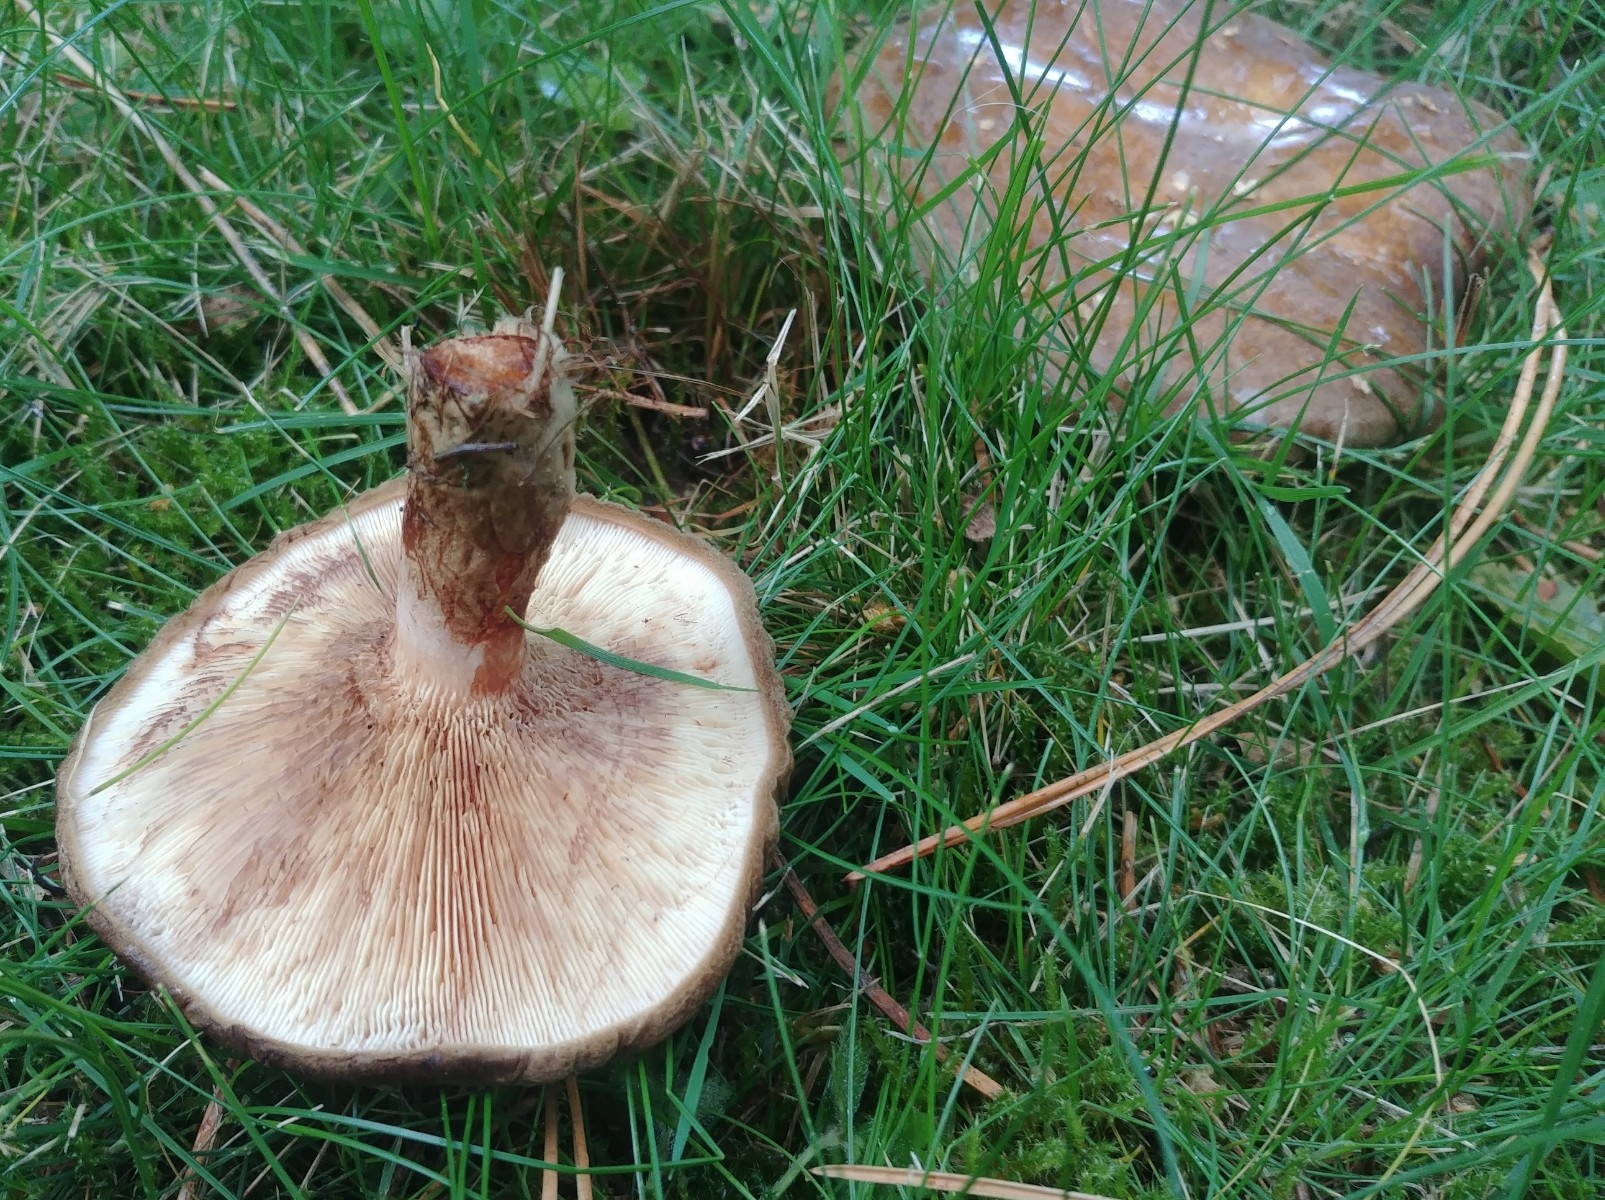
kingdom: Fungi
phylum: Basidiomycota
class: Agaricomycetes
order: Boletales
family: Paxillaceae
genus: Paxillus
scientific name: Paxillus involutus
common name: almindelig netbladhat
